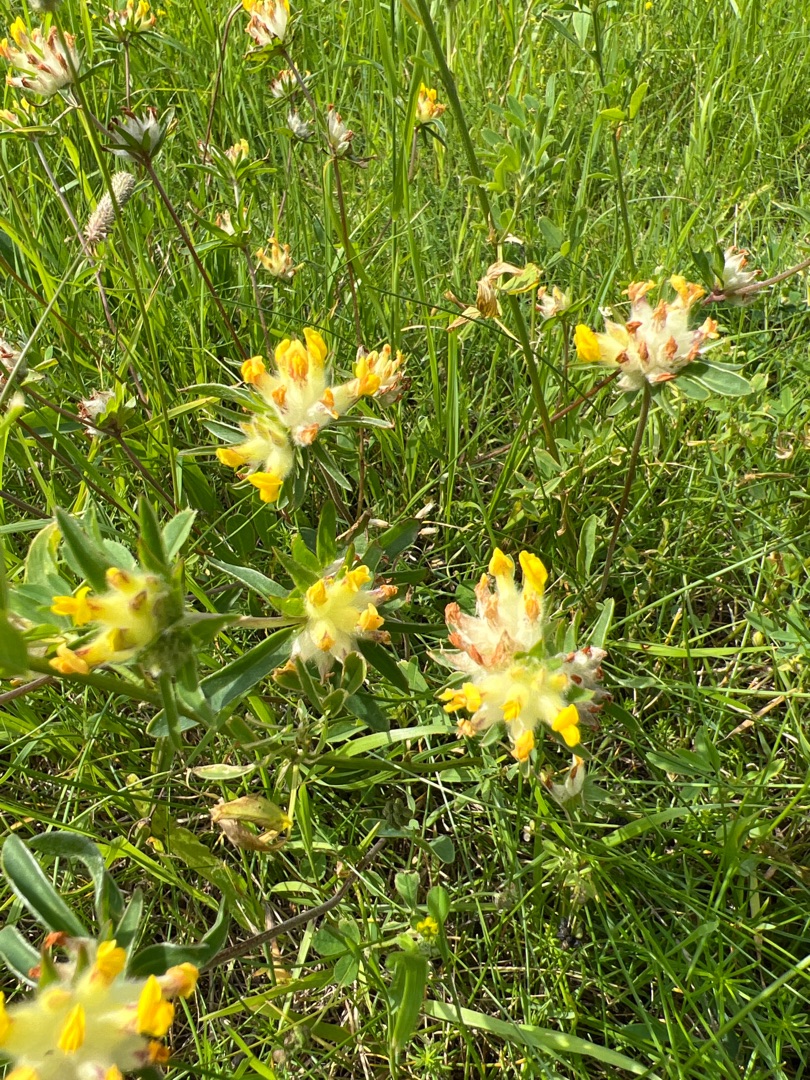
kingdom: Plantae
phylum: Tracheophyta
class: Magnoliopsida
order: Fabales
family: Fabaceae
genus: Anthyllis
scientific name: Anthyllis vulneraria
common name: Rundbælg
